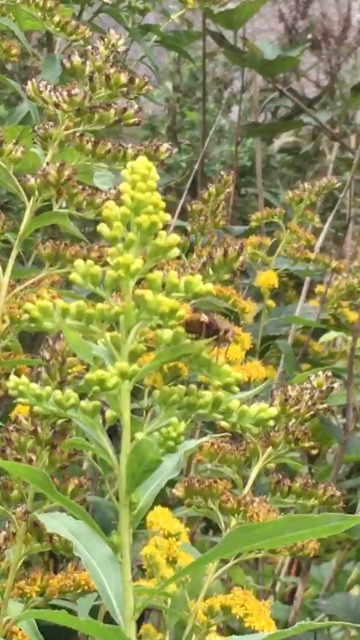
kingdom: Animalia
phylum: Arthropoda
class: Insecta
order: Diptera
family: Tachinidae
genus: Tachina
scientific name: Tachina fera
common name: Mellemfluen oskar
